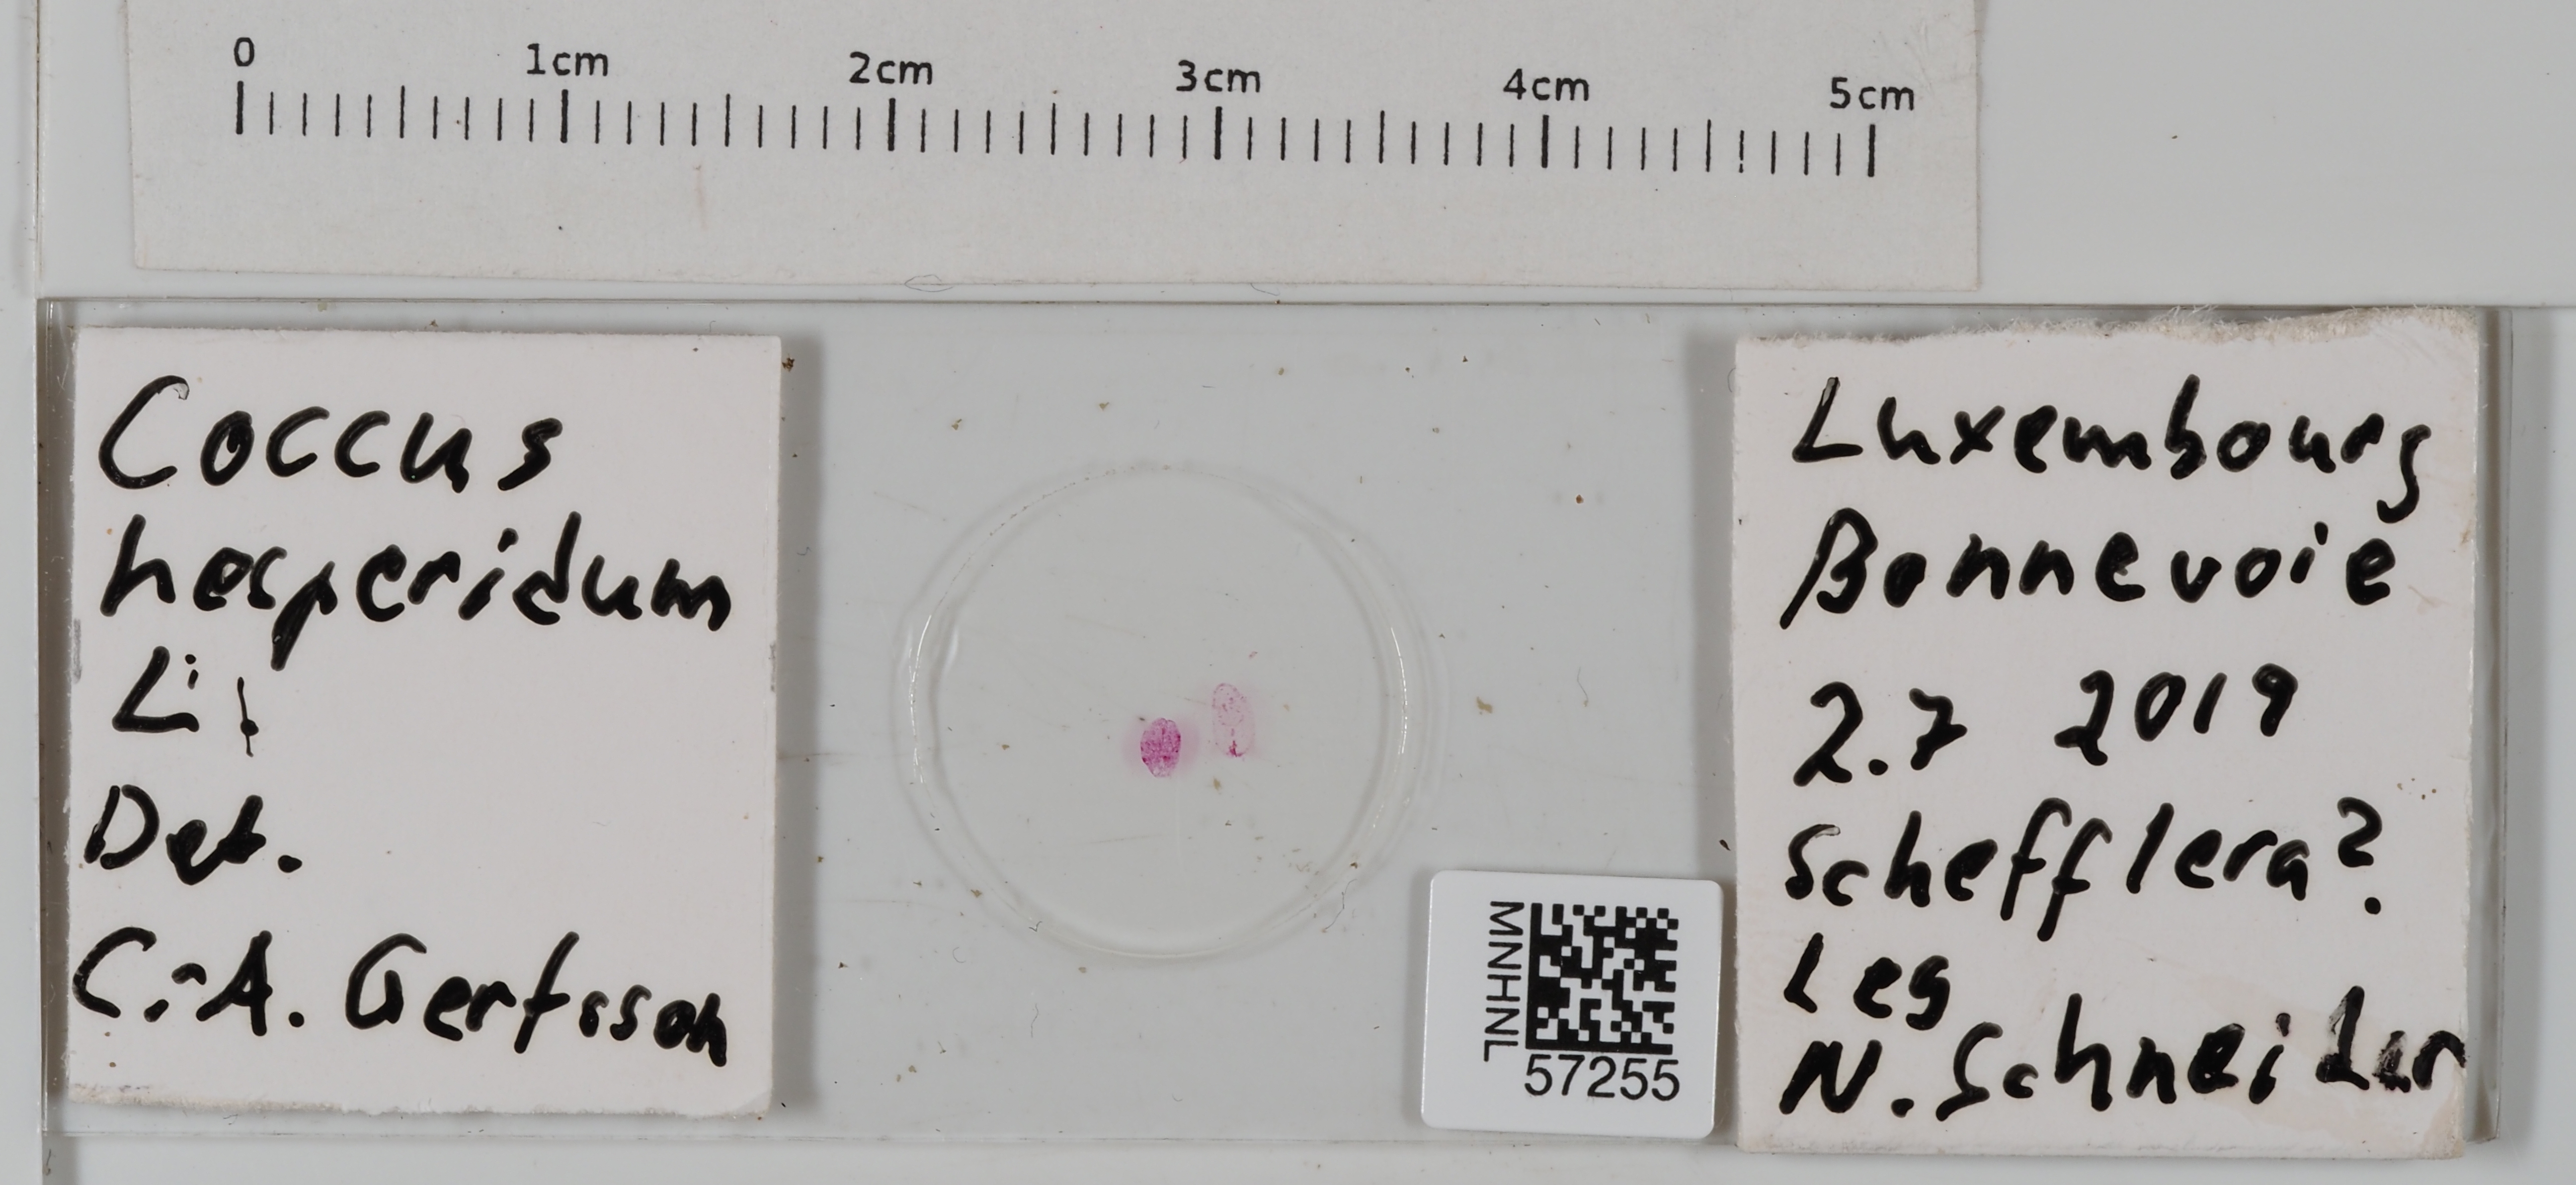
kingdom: Animalia
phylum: Arthropoda
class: Insecta
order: Hemiptera
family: Coccidae
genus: Coccus
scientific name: Coccus hesperidum
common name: Soft brown scale
